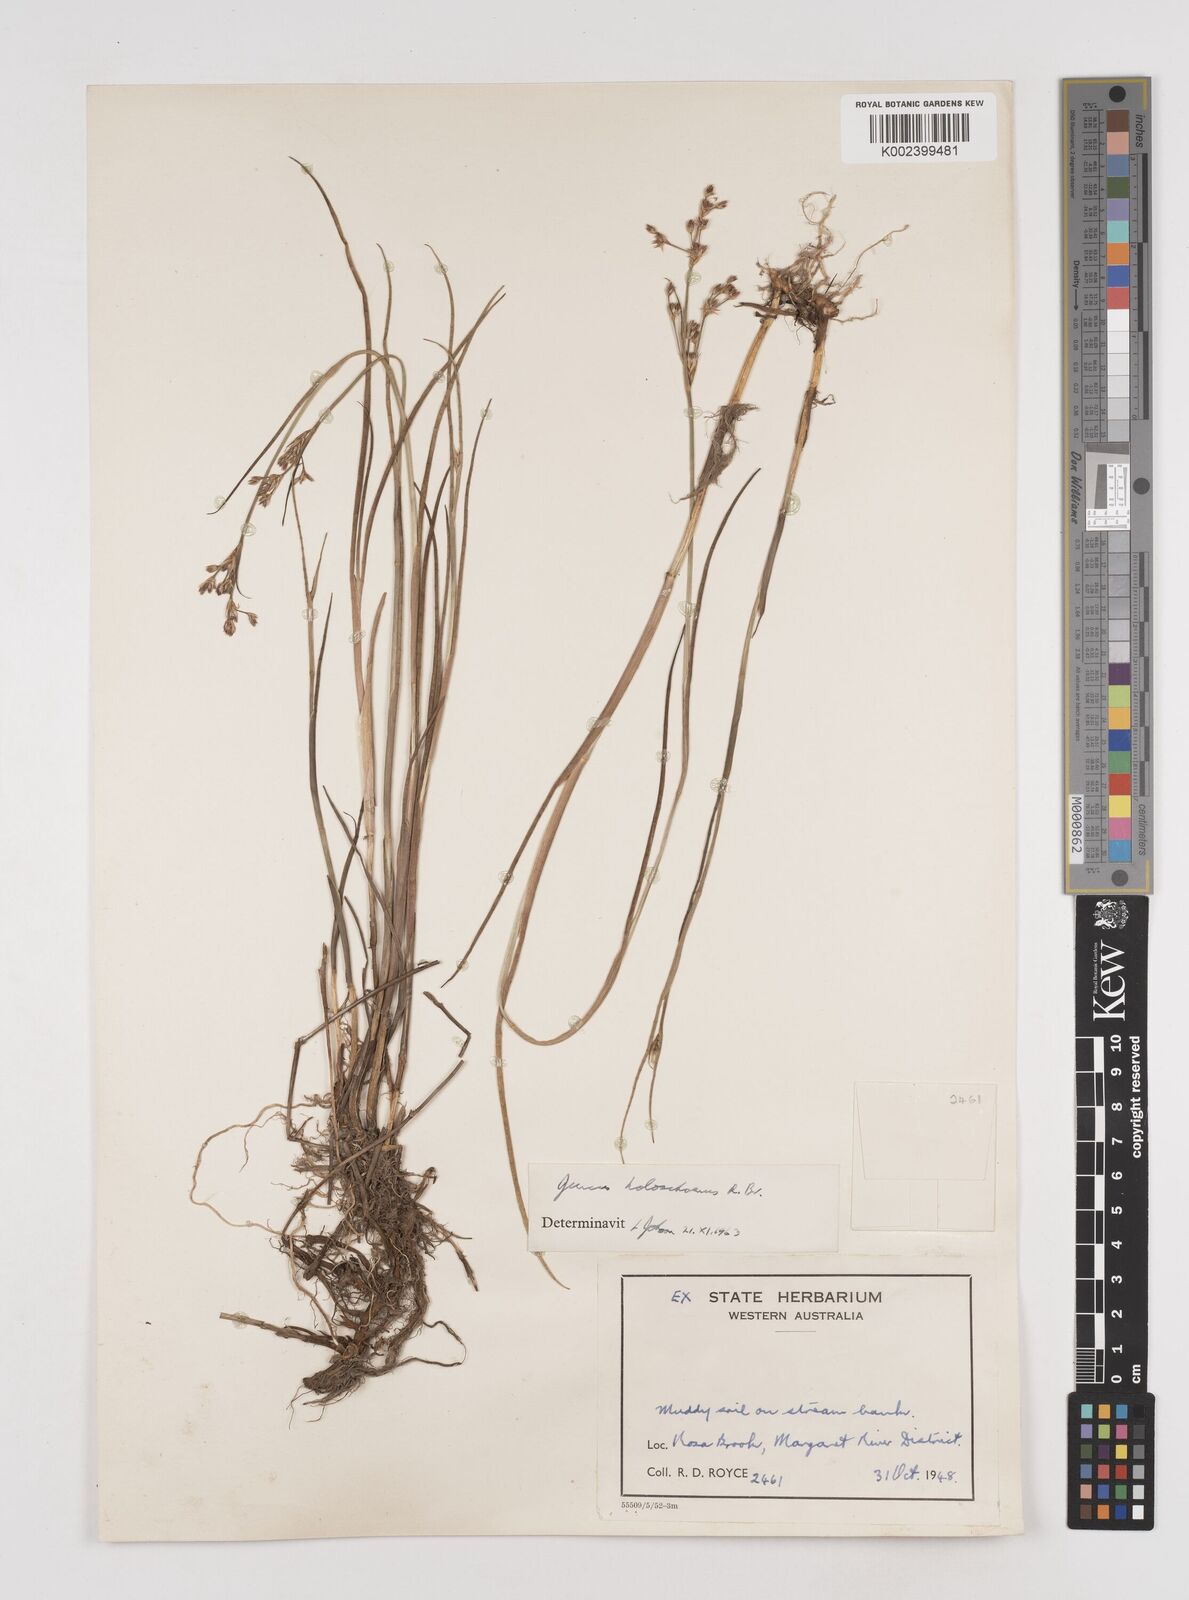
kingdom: Plantae
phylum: Tracheophyta
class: Liliopsida
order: Poales
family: Juncaceae
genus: Juncus
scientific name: Juncus holoschoenus
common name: Joint-leaf rush
